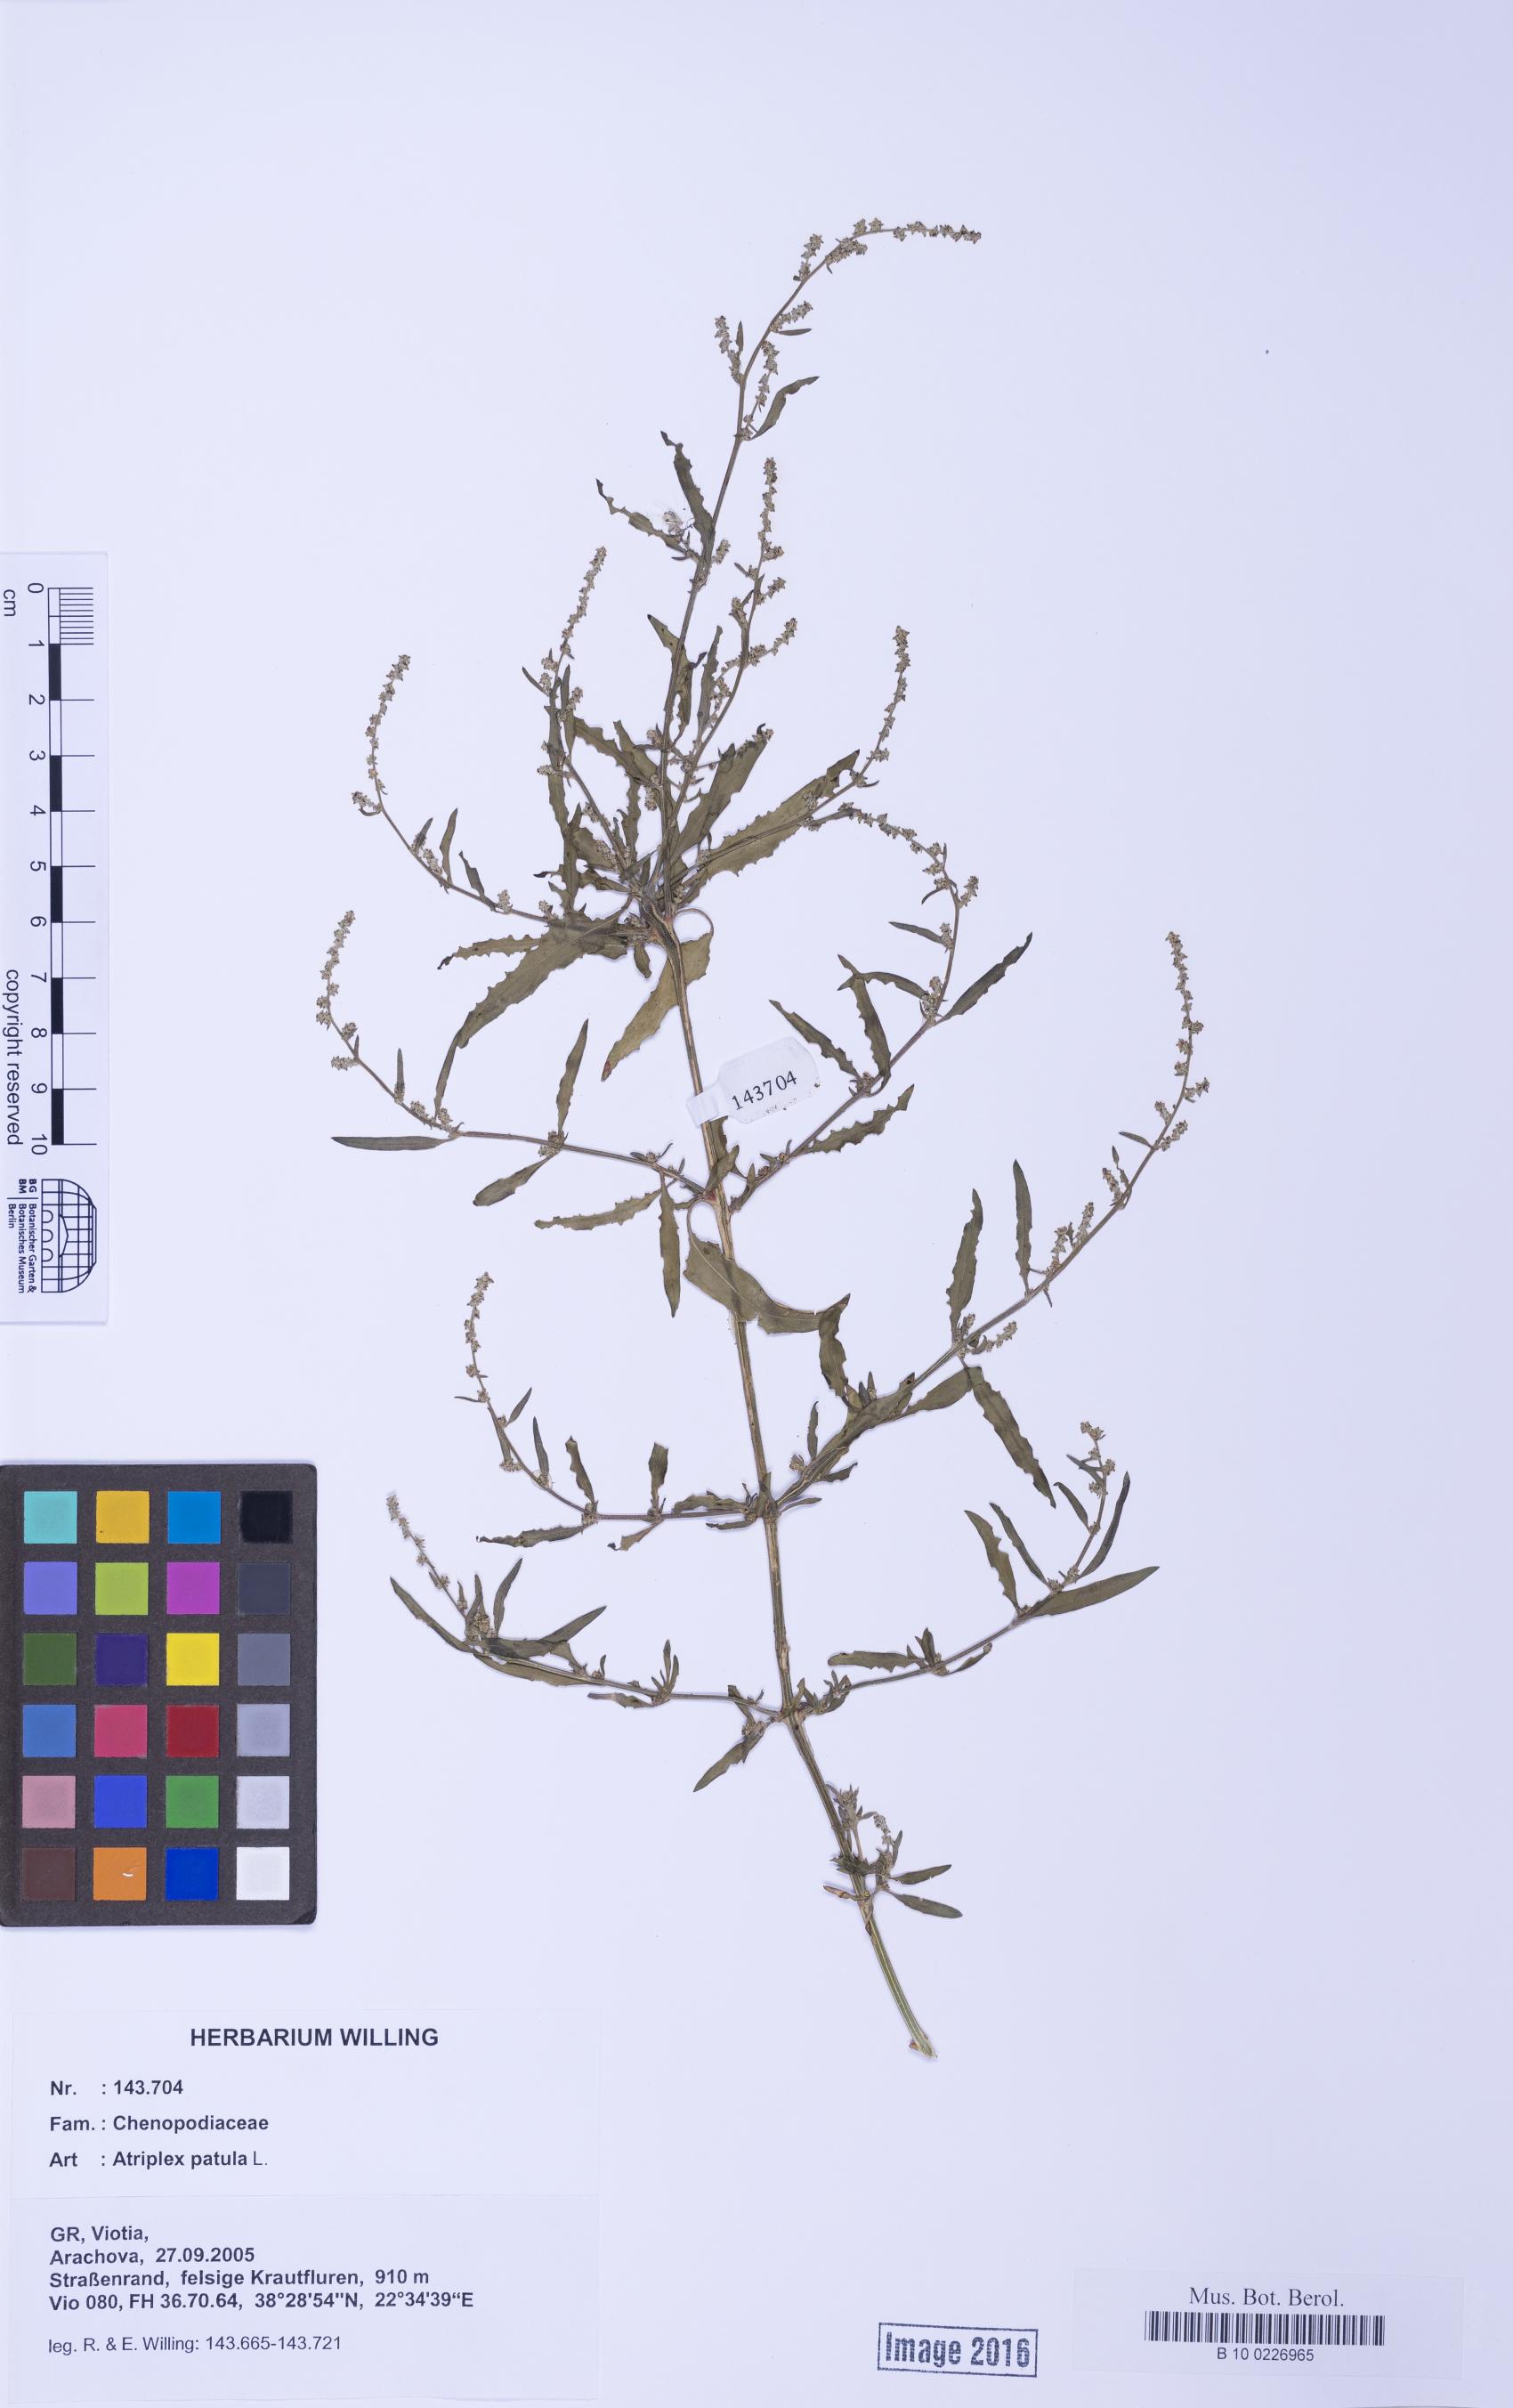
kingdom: Plantae
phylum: Tracheophyta
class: Magnoliopsida
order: Caryophyllales
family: Amaranthaceae
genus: Atriplex
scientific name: Atriplex patula
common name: Common orache
